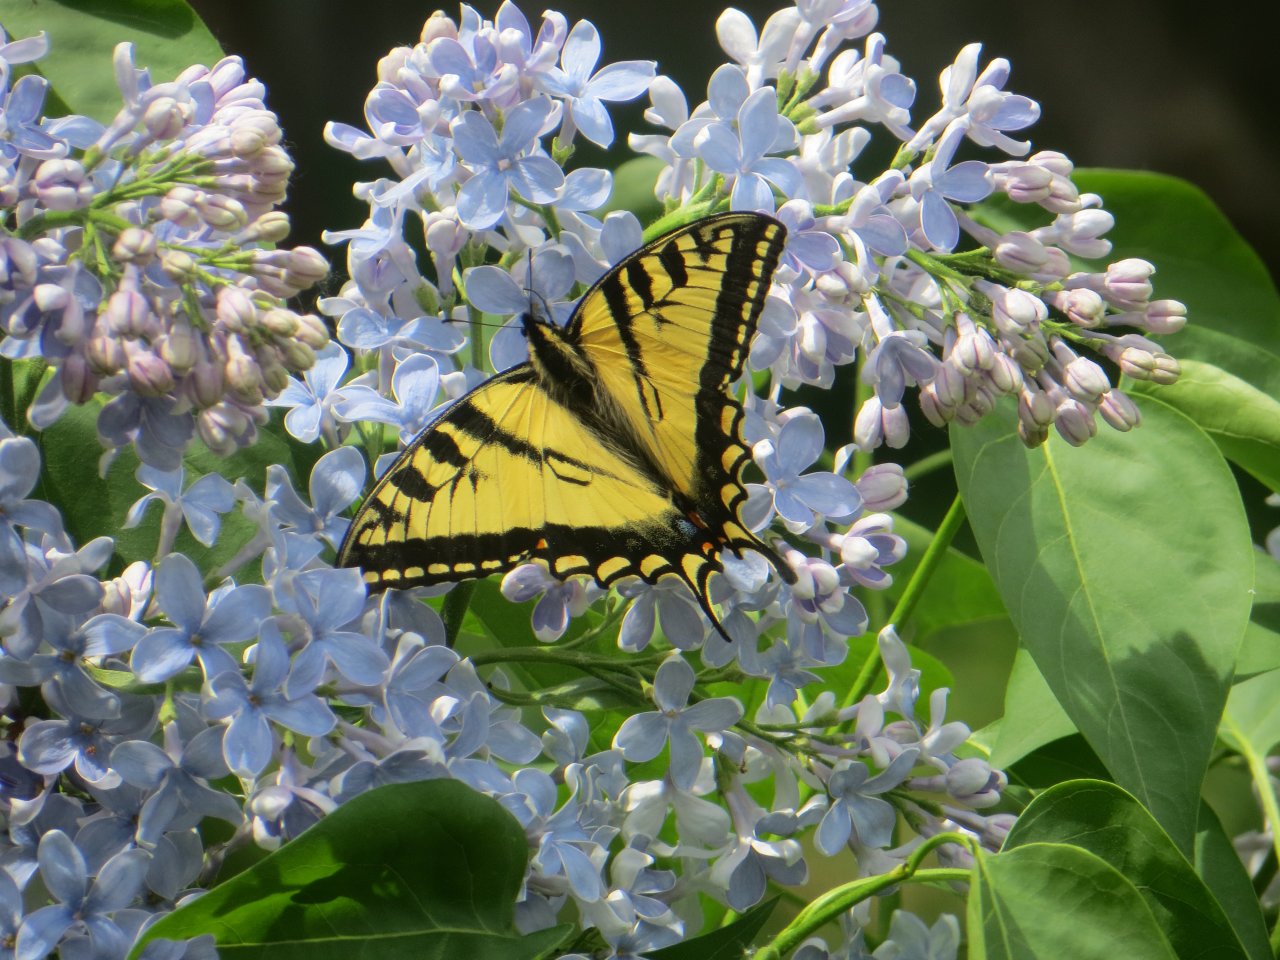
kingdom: Animalia
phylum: Arthropoda
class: Insecta
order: Lepidoptera
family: Papilionidae
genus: Pterourus
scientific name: Pterourus glaucus
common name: Eastern Tiger Swallowtail
